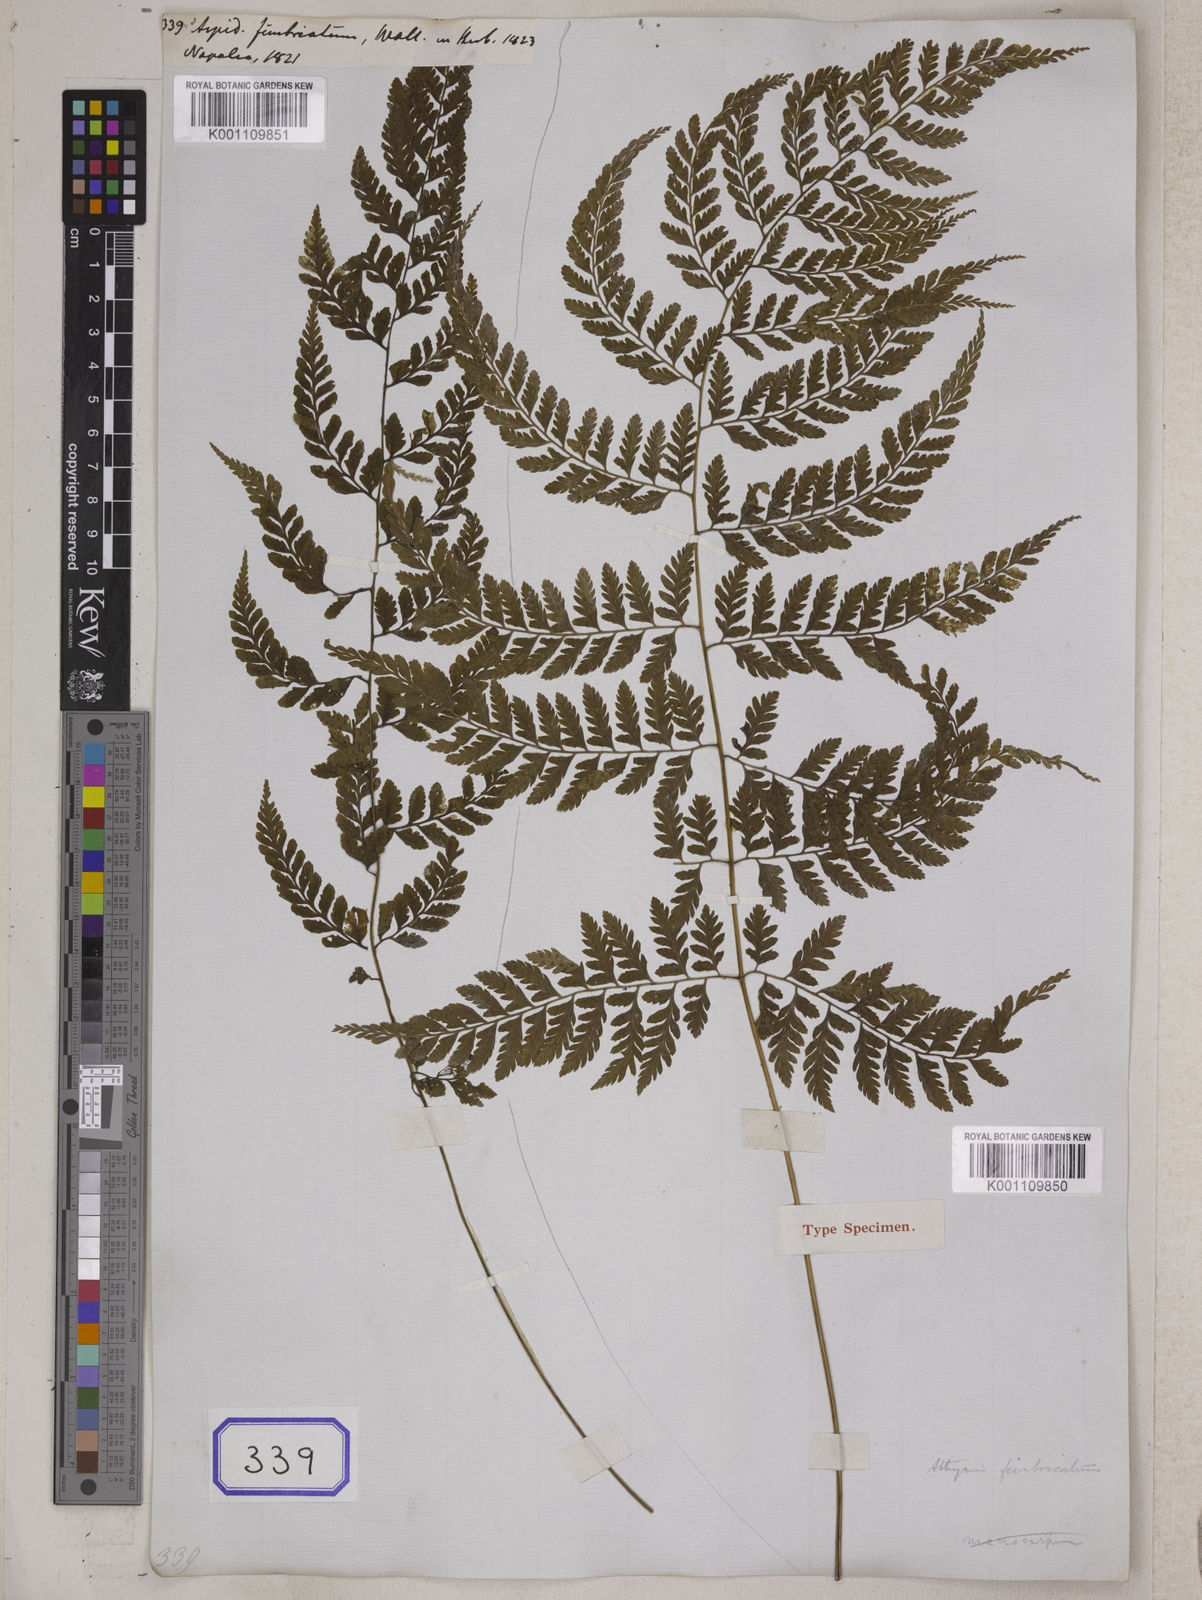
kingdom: Plantae
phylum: Tracheophyta
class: Polypodiopsida
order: Polypodiales
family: Athyriaceae
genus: Athyrium
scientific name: Athyrium fimbriatum
